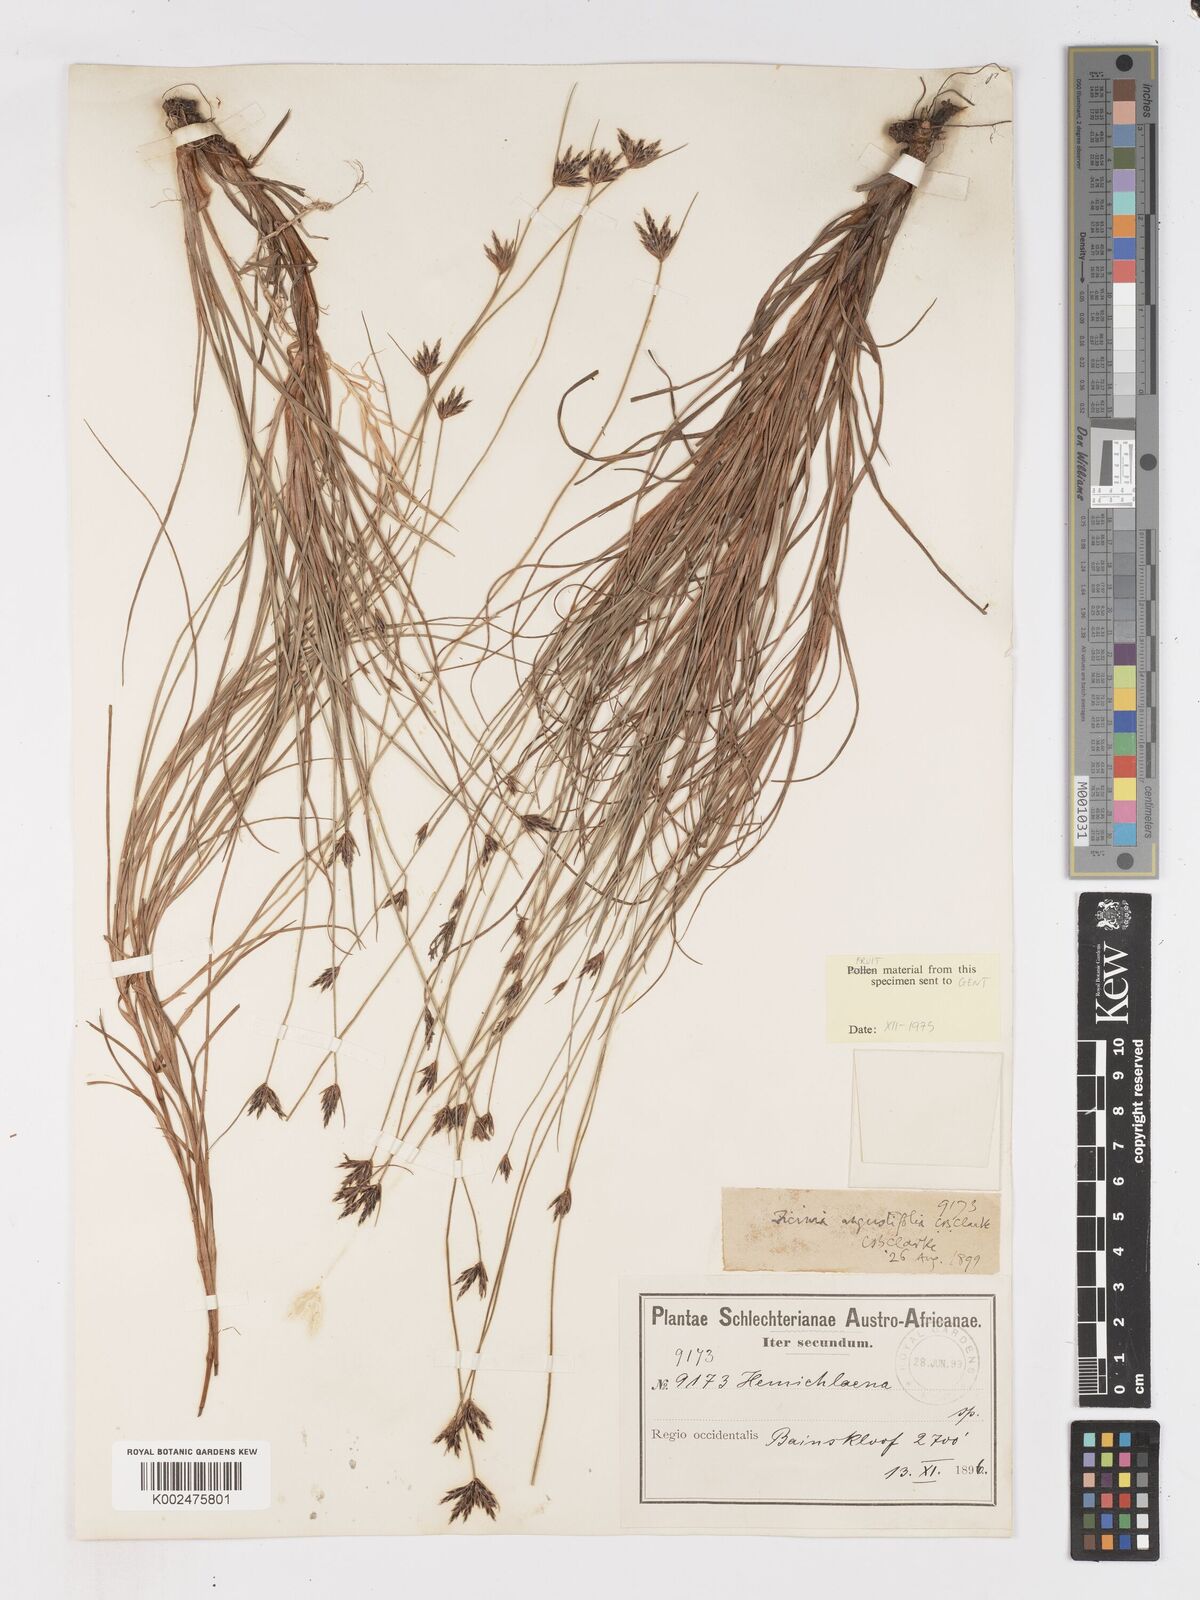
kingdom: Plantae
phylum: Tracheophyta
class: Liliopsida
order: Poales
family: Cyperaceae
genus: Ficinia
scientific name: Ficinia angustifolia
